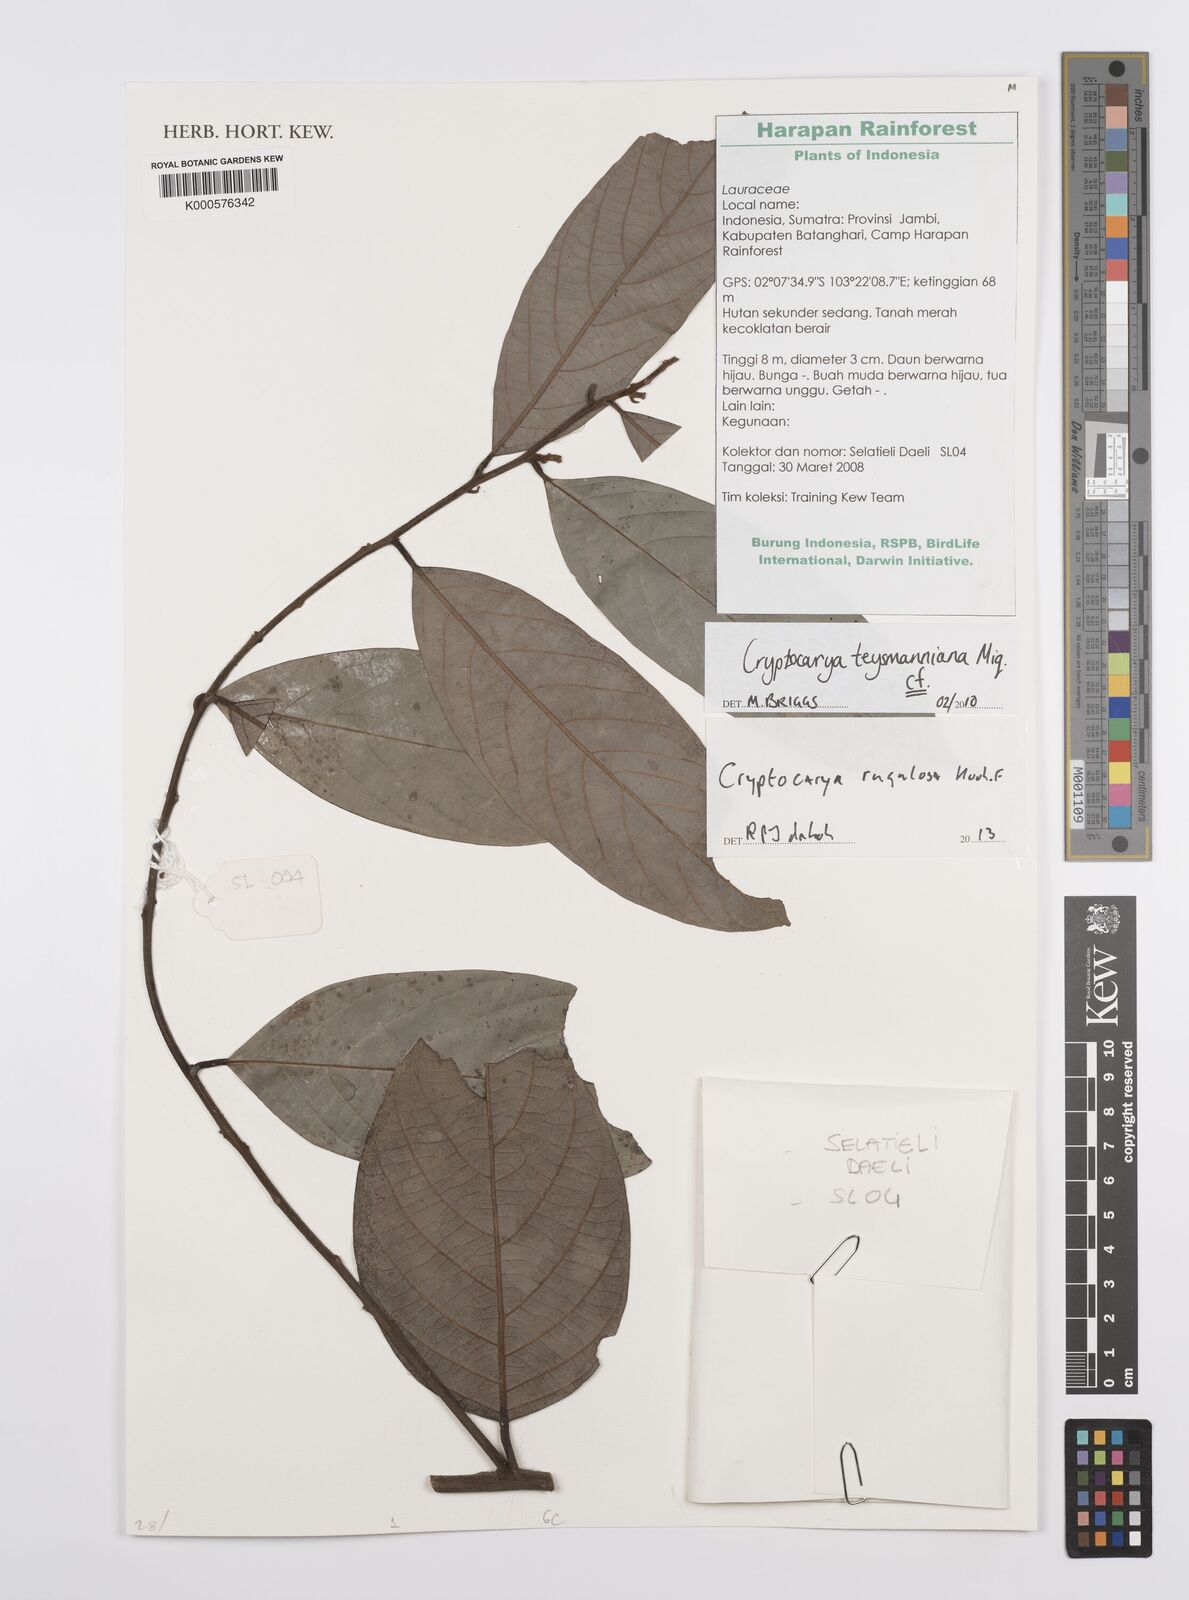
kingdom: Plantae
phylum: Tracheophyta
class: Magnoliopsida
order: Laurales
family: Lauraceae
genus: Cryptocarya
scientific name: Cryptocarya rugulosa
